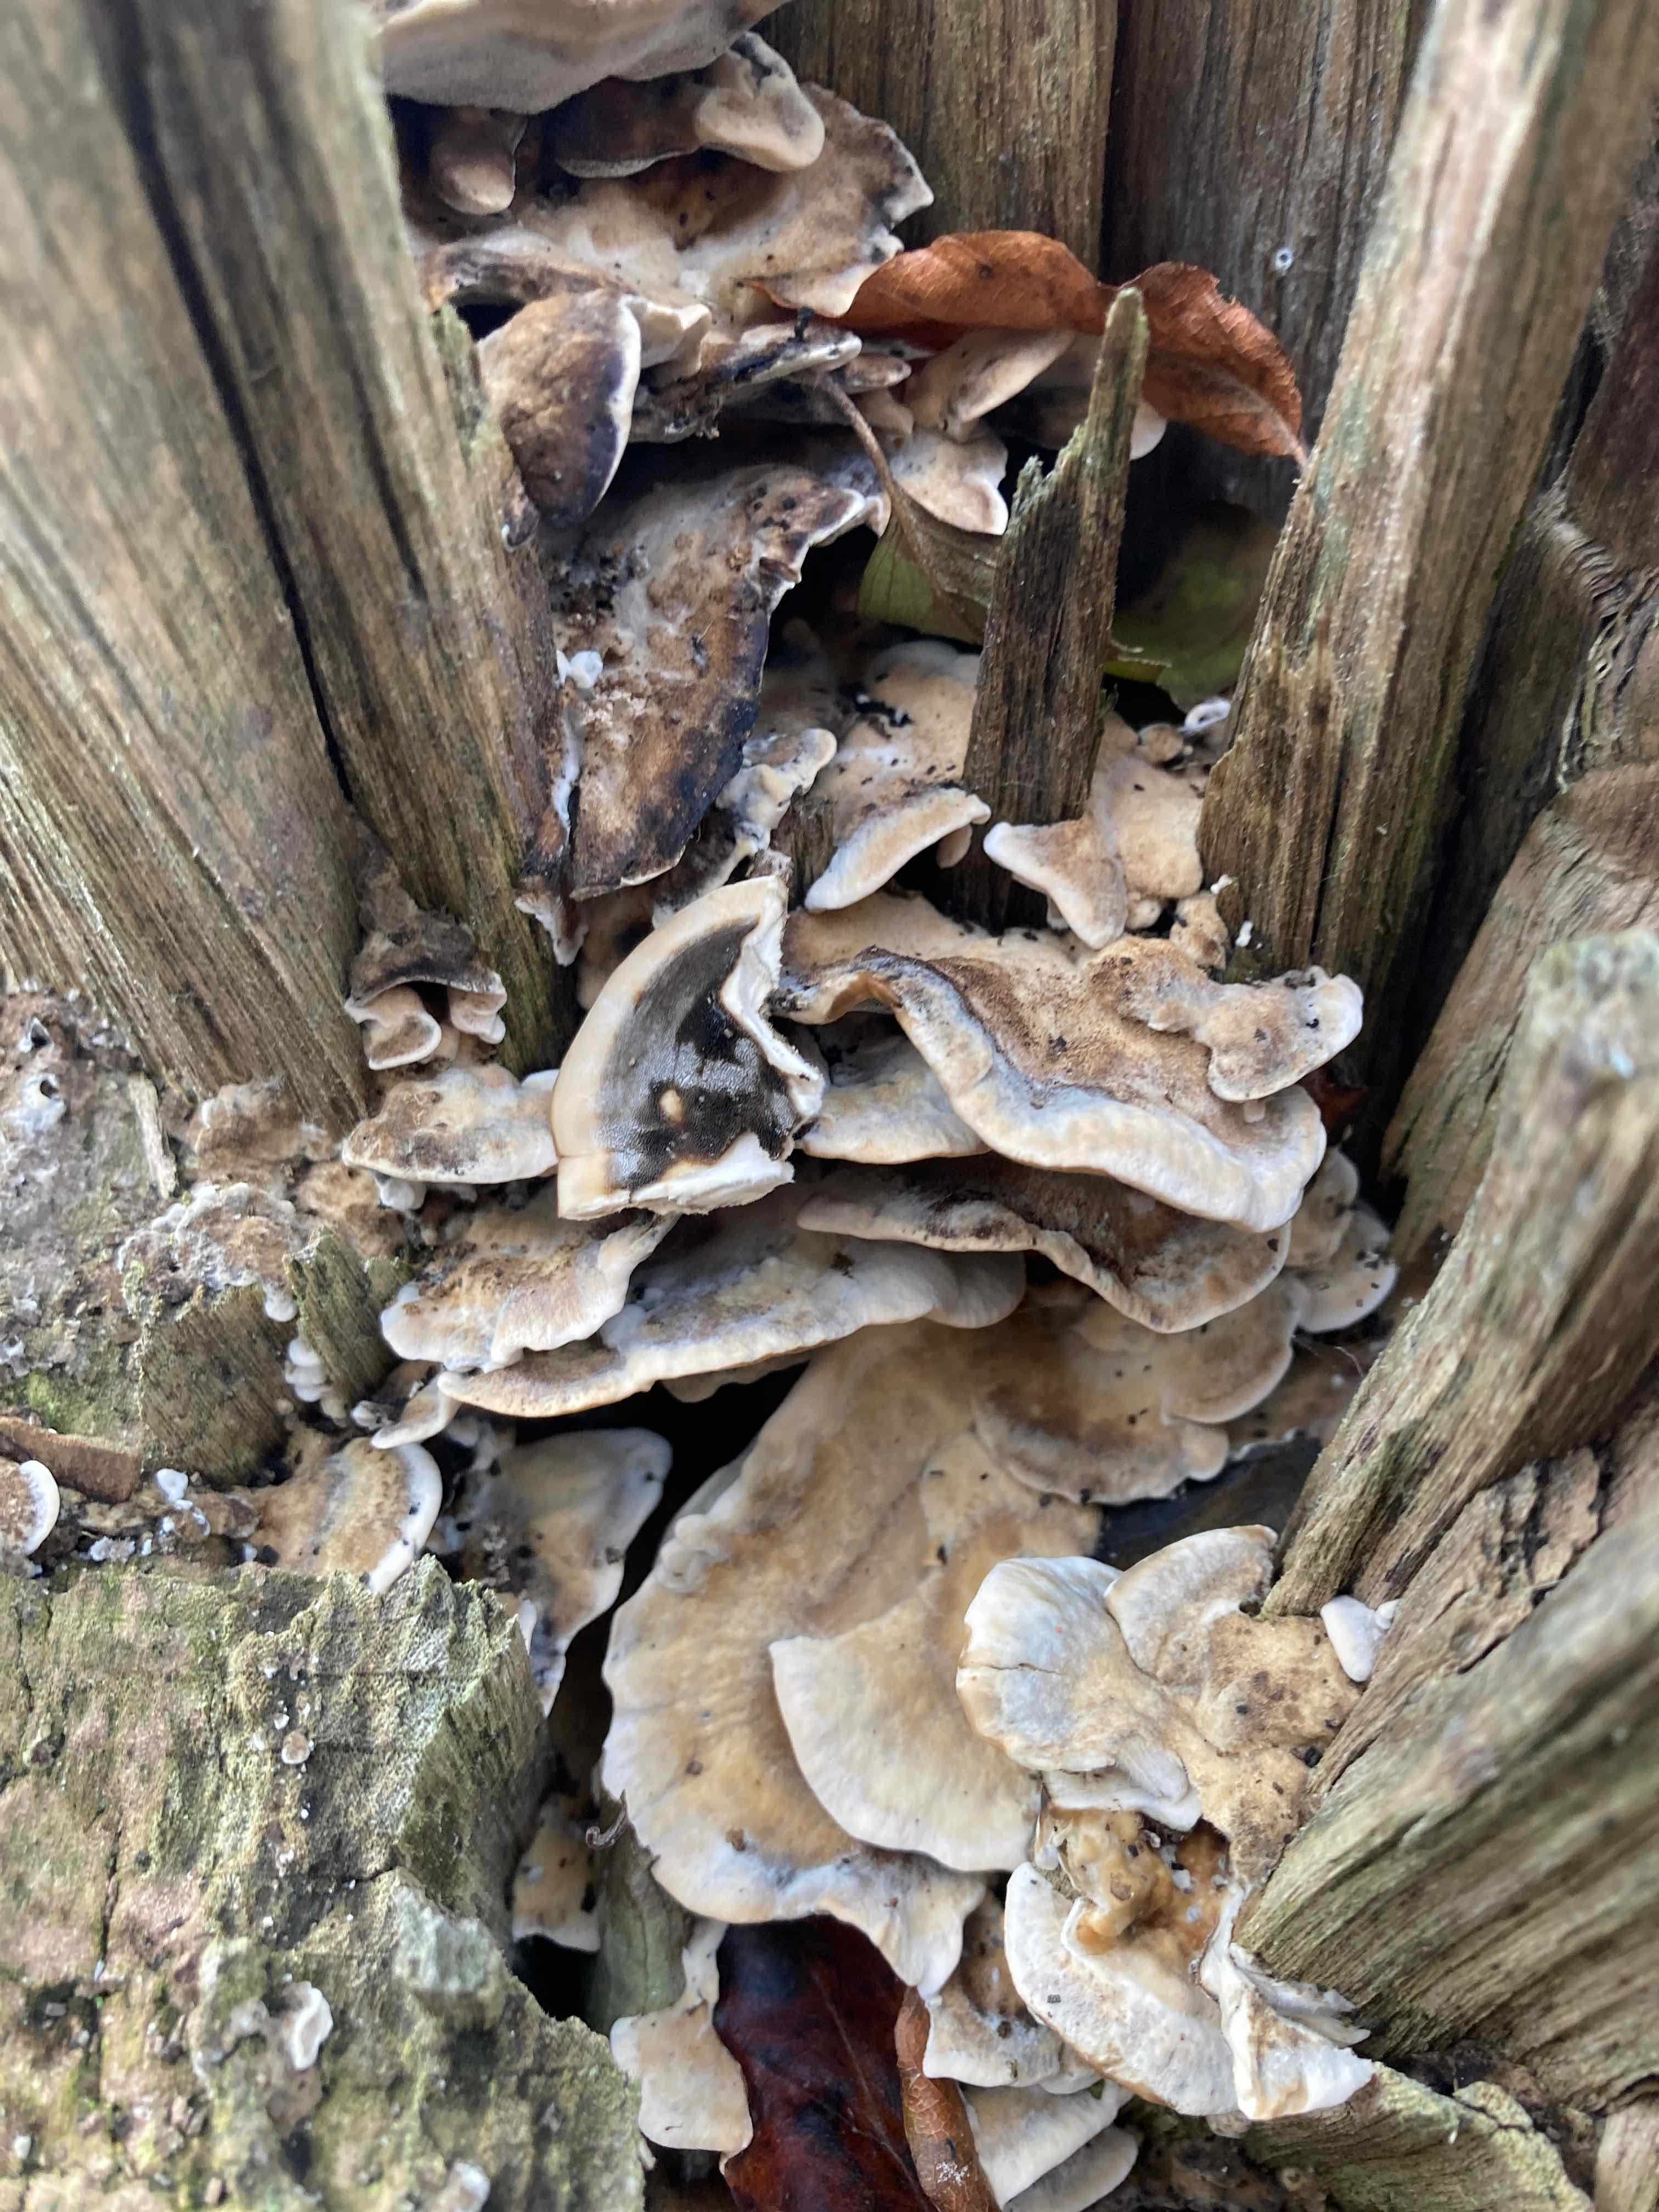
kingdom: Fungi
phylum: Basidiomycota
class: Agaricomycetes
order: Polyporales
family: Phanerochaetaceae
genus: Bjerkandera
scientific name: Bjerkandera adusta
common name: sveden sodporesvamp
